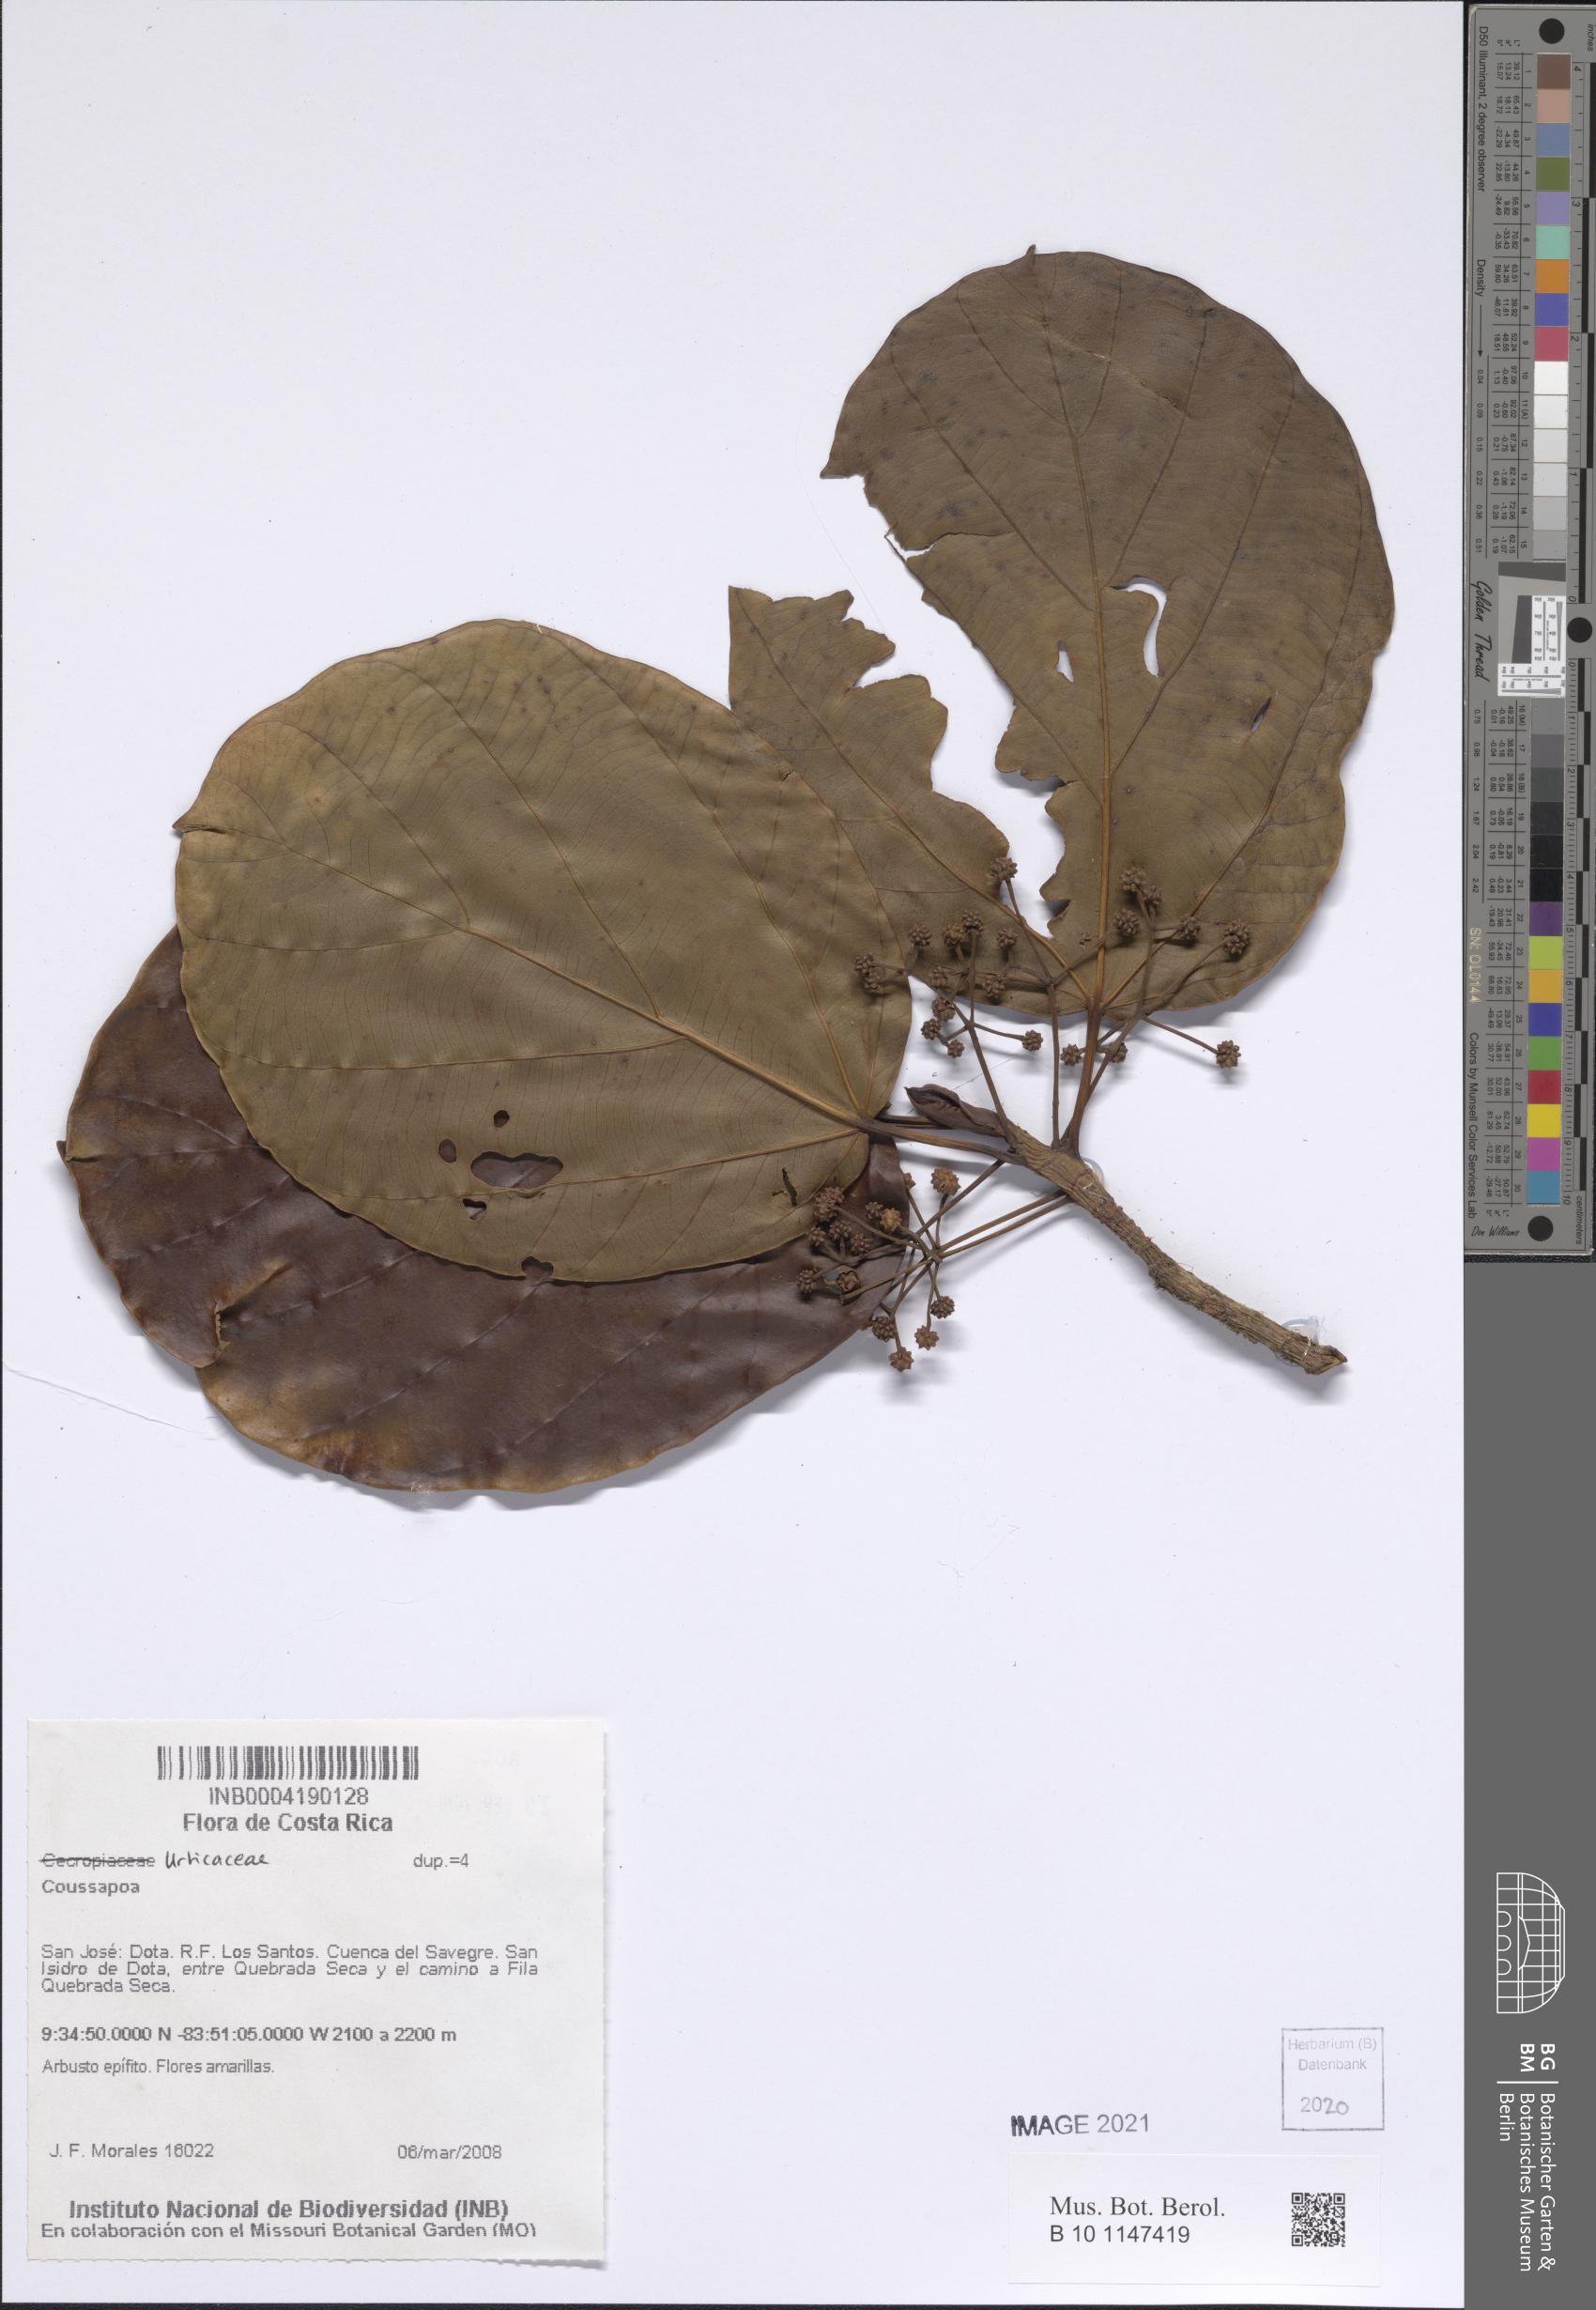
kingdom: Plantae
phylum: Tracheophyta
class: Magnoliopsida
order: Rosales
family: Urticaceae
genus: Coussapoa
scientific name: Coussapoa
